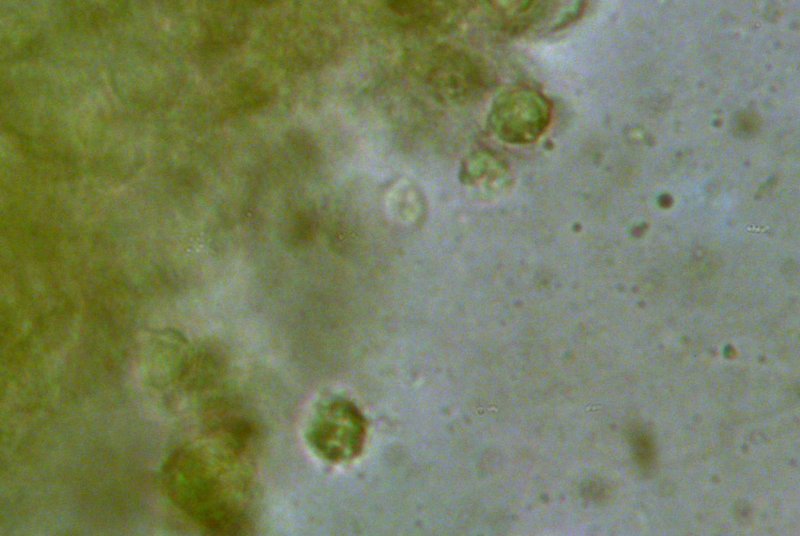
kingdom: Fungi
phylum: Basidiomycota
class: Agaricomycetes
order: Agaricales
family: Clavariaceae
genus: Clavulinopsis
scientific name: Clavulinopsis helvola
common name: orangegul køllesvamp
